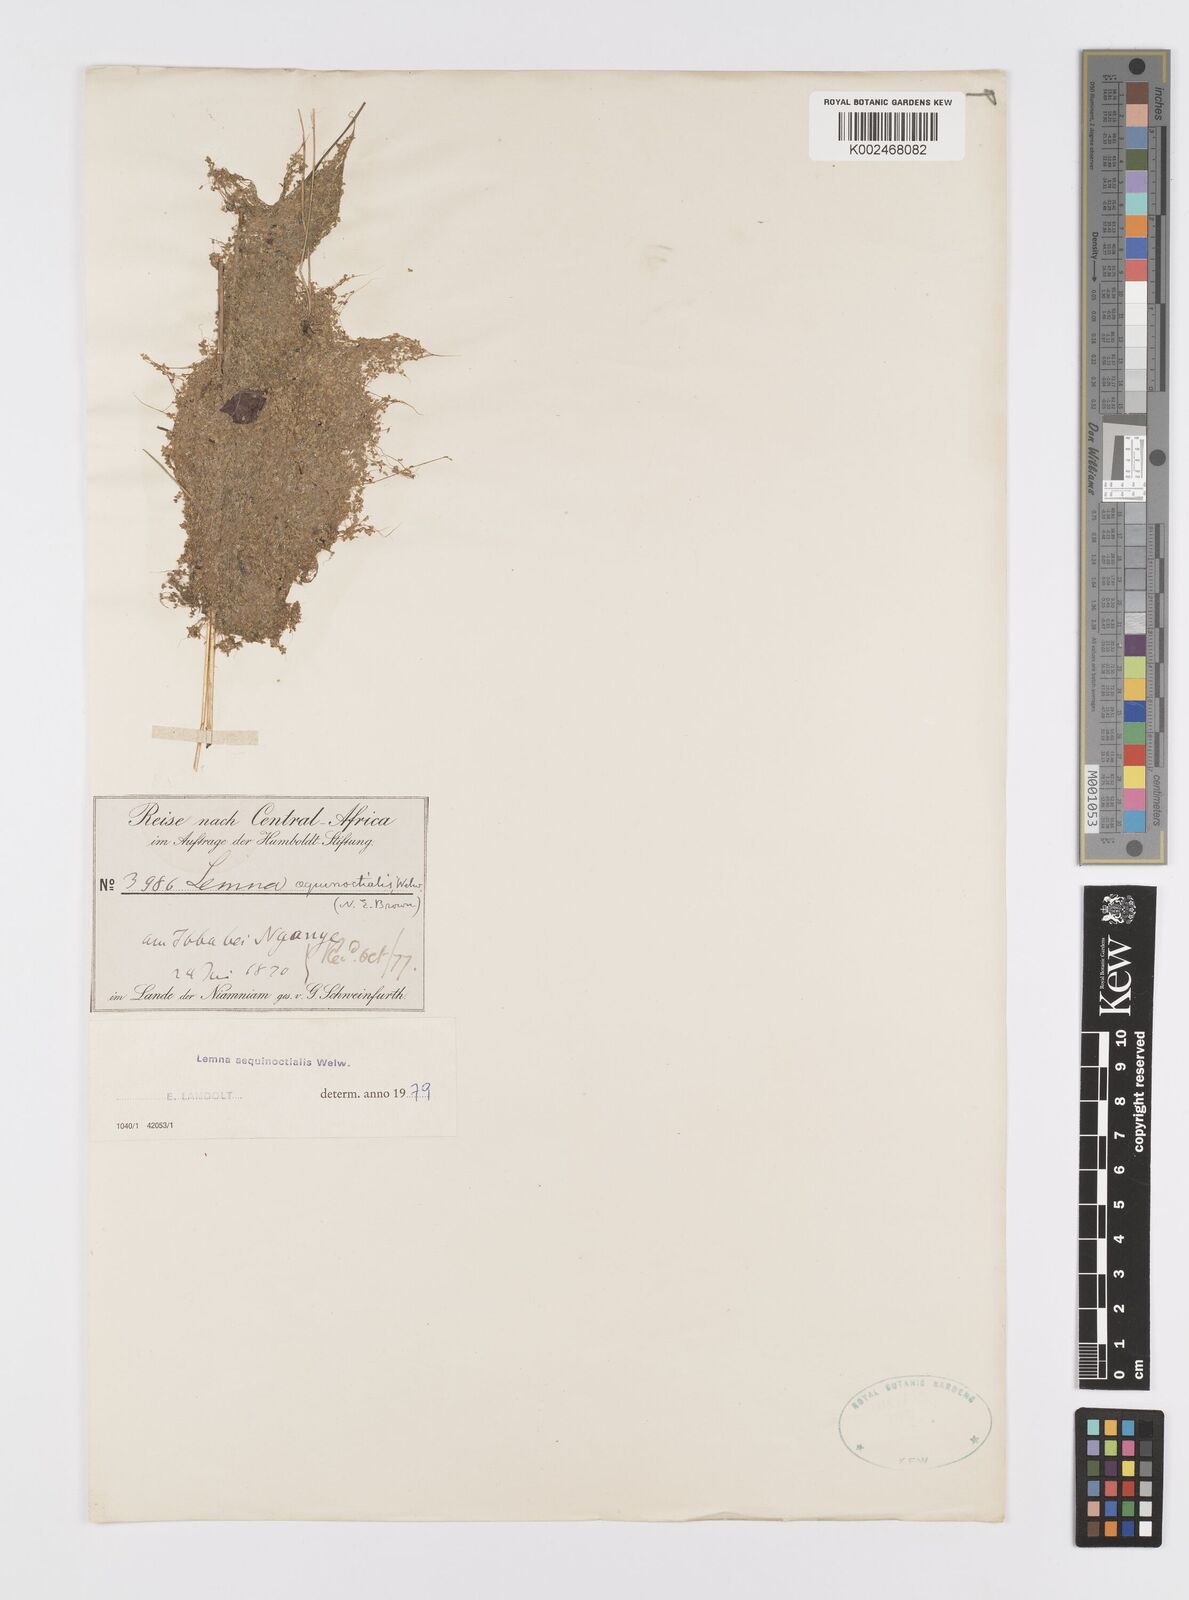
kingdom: Plantae
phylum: Tracheophyta
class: Liliopsida
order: Alismatales
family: Araceae
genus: Lemna
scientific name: Lemna aequinoctialis
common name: Duckweed
